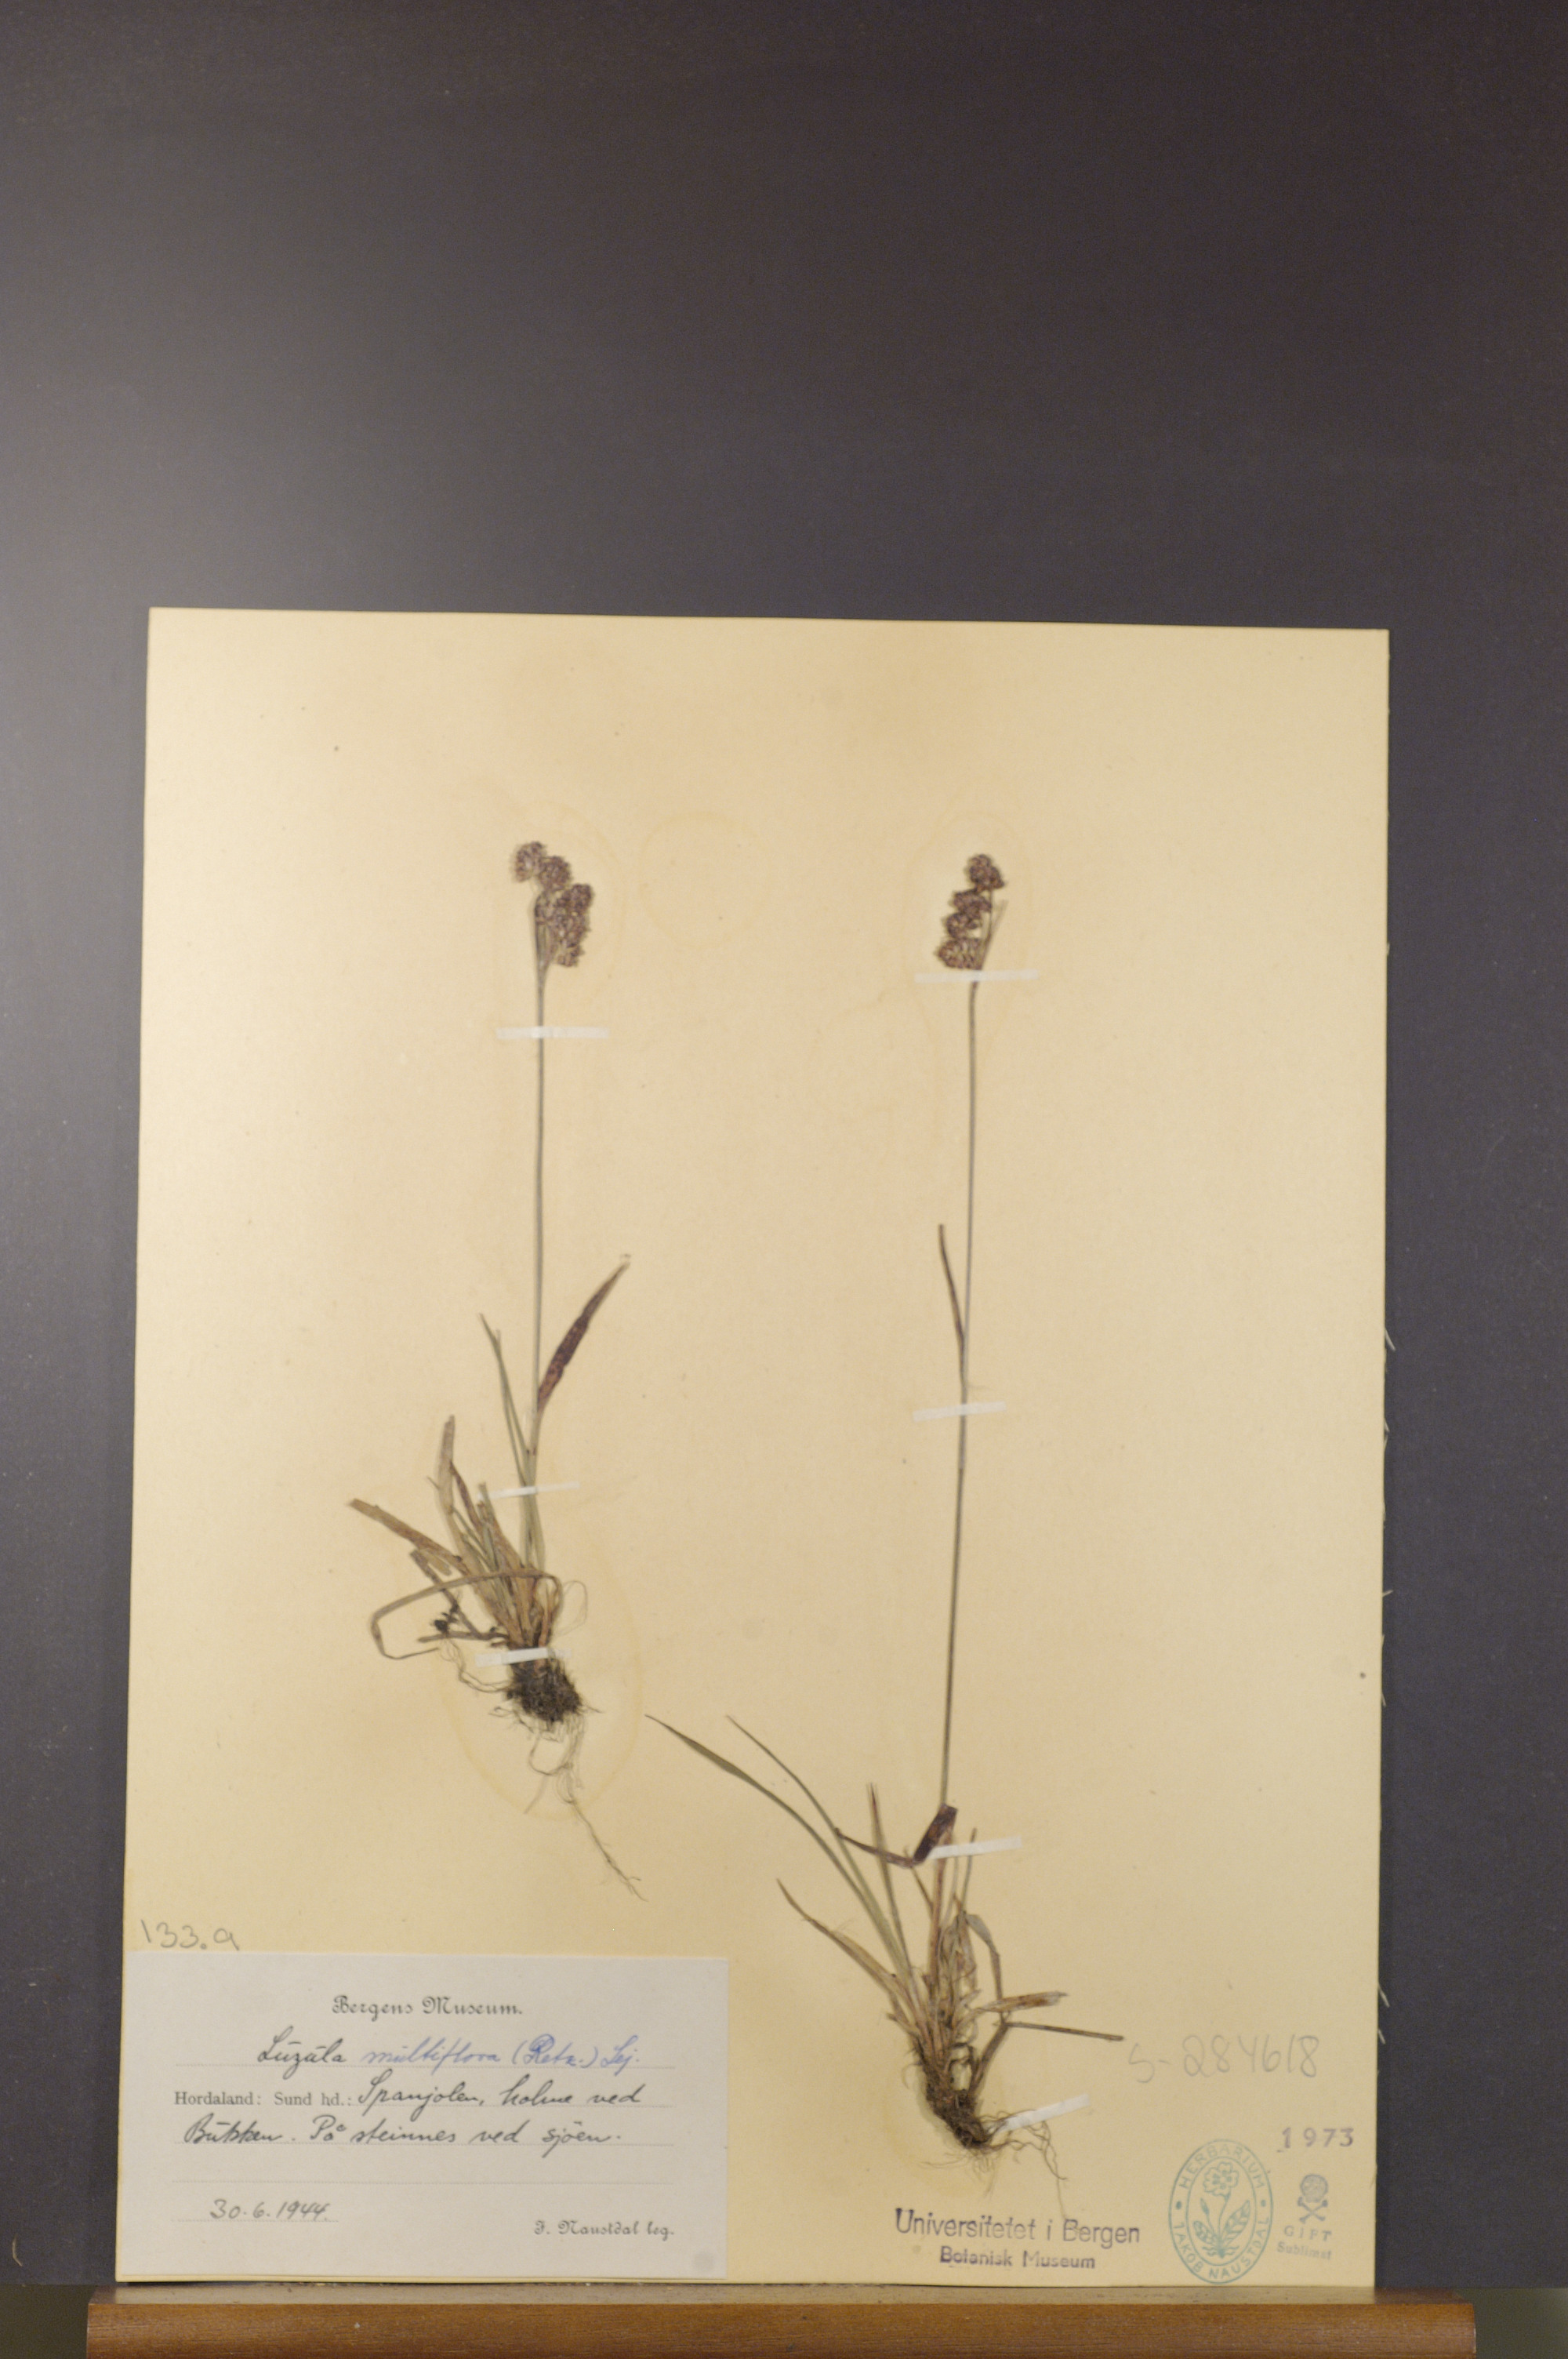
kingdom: Plantae
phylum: Tracheophyta
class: Liliopsida
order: Poales
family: Juncaceae
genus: Luzula
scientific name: Luzula multiflora
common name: Heath wood-rush
